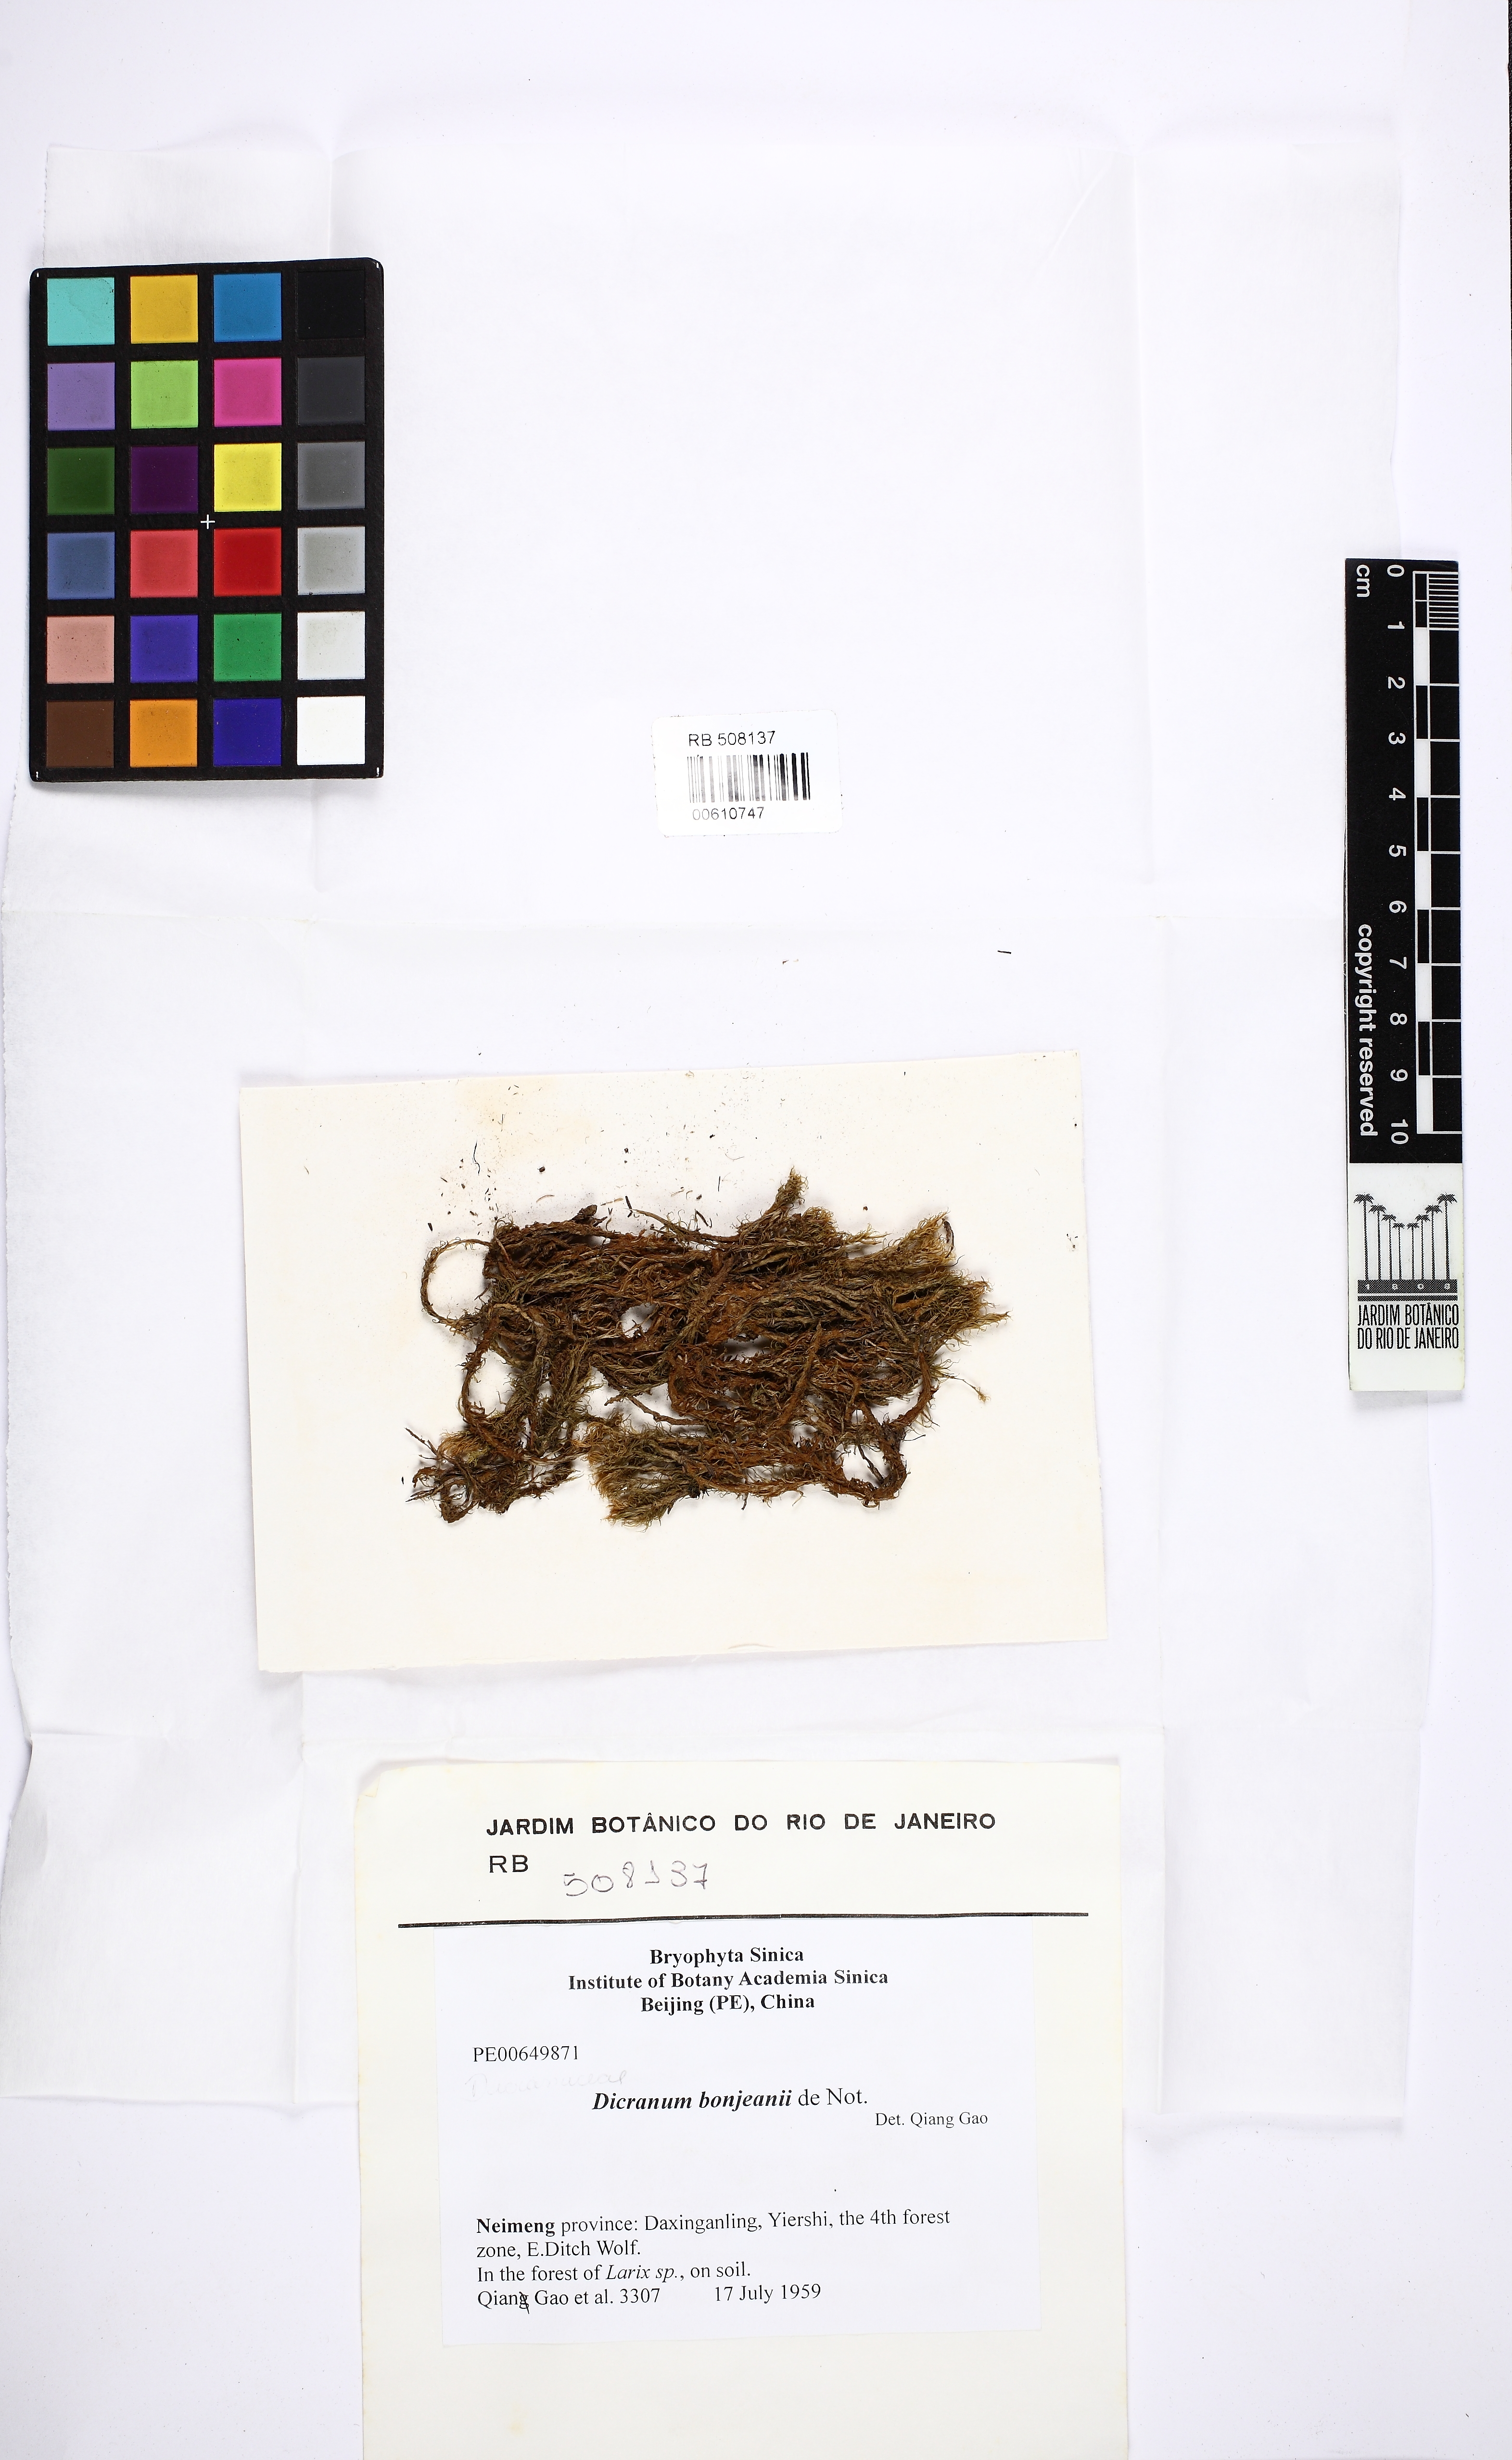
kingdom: Plantae
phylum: Bryophyta
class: Bryopsida
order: Dicranales
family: Dicranaceae
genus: Dicranum
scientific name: Dicranum bonjeanii
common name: Bonjean's broom moss
